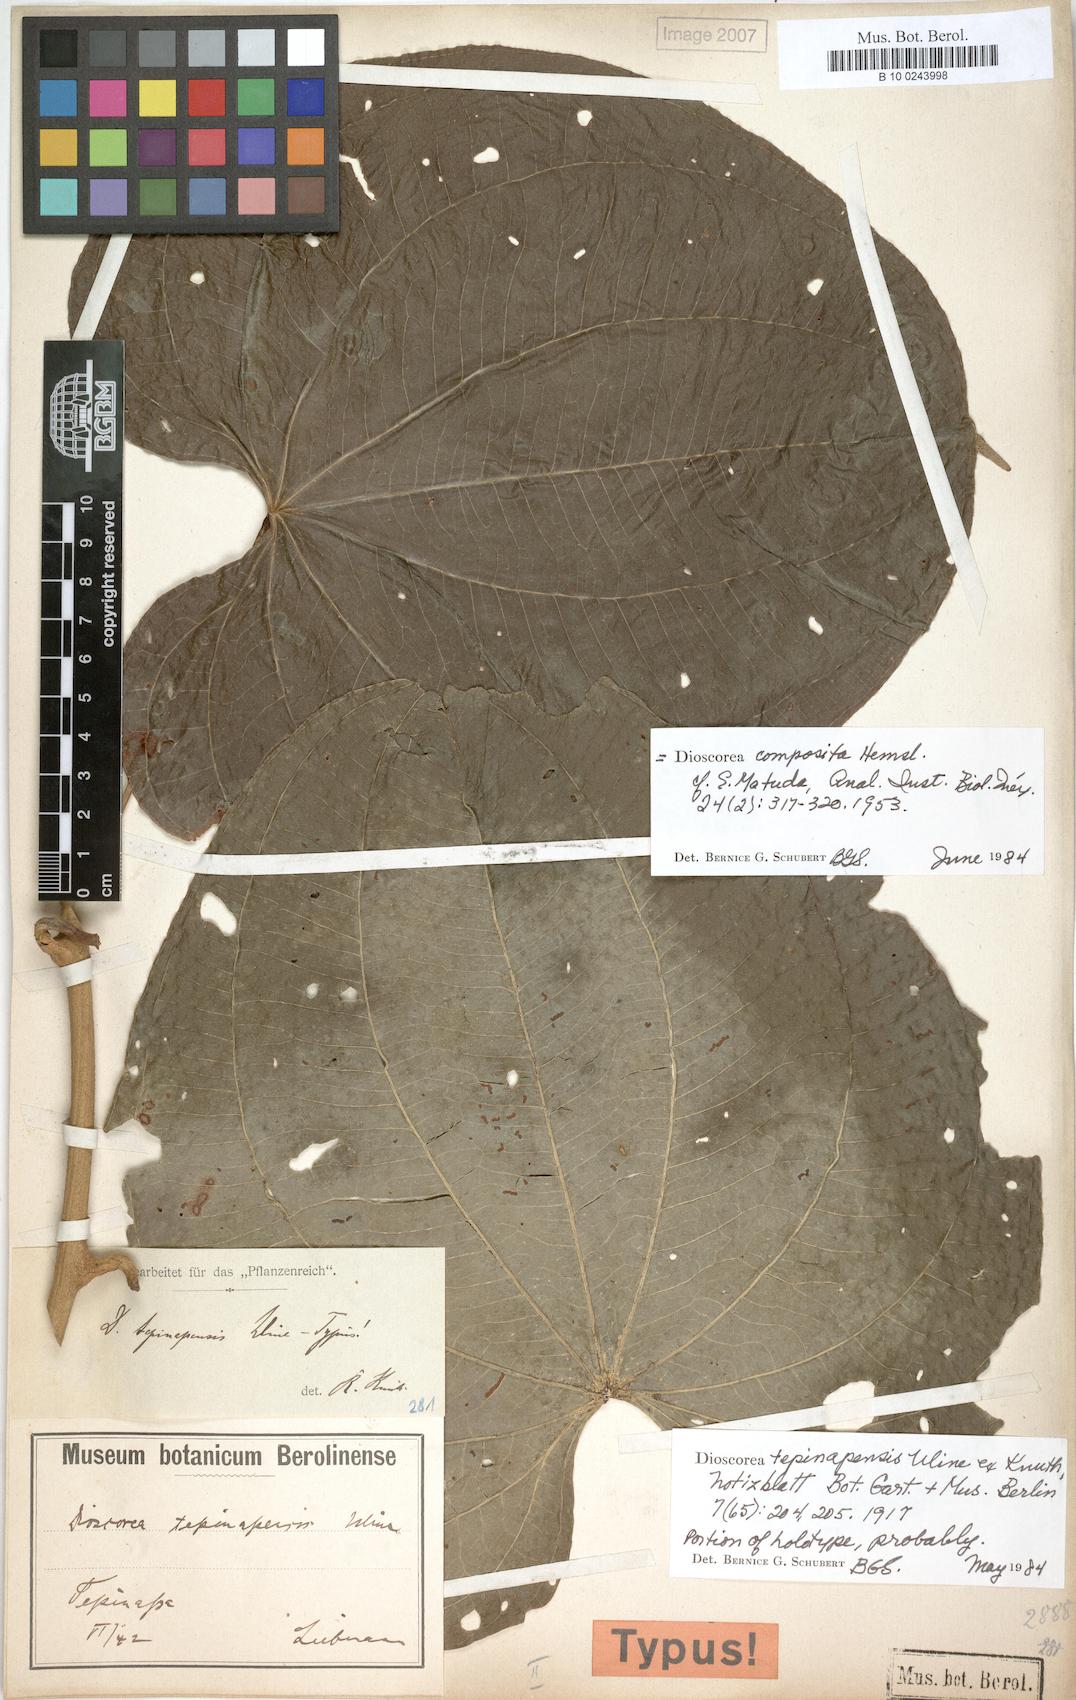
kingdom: Plantae
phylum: Tracheophyta
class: Liliopsida
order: Dioscoreales
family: Dioscoreaceae
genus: Dioscorea
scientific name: Dioscorea composita
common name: Barbasco
